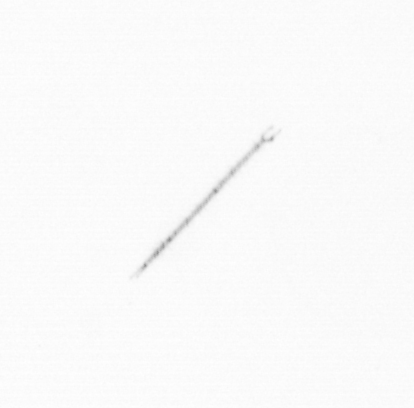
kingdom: Chromista
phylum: Ochrophyta
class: Bacillariophyceae
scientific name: Bacillariophyceae
